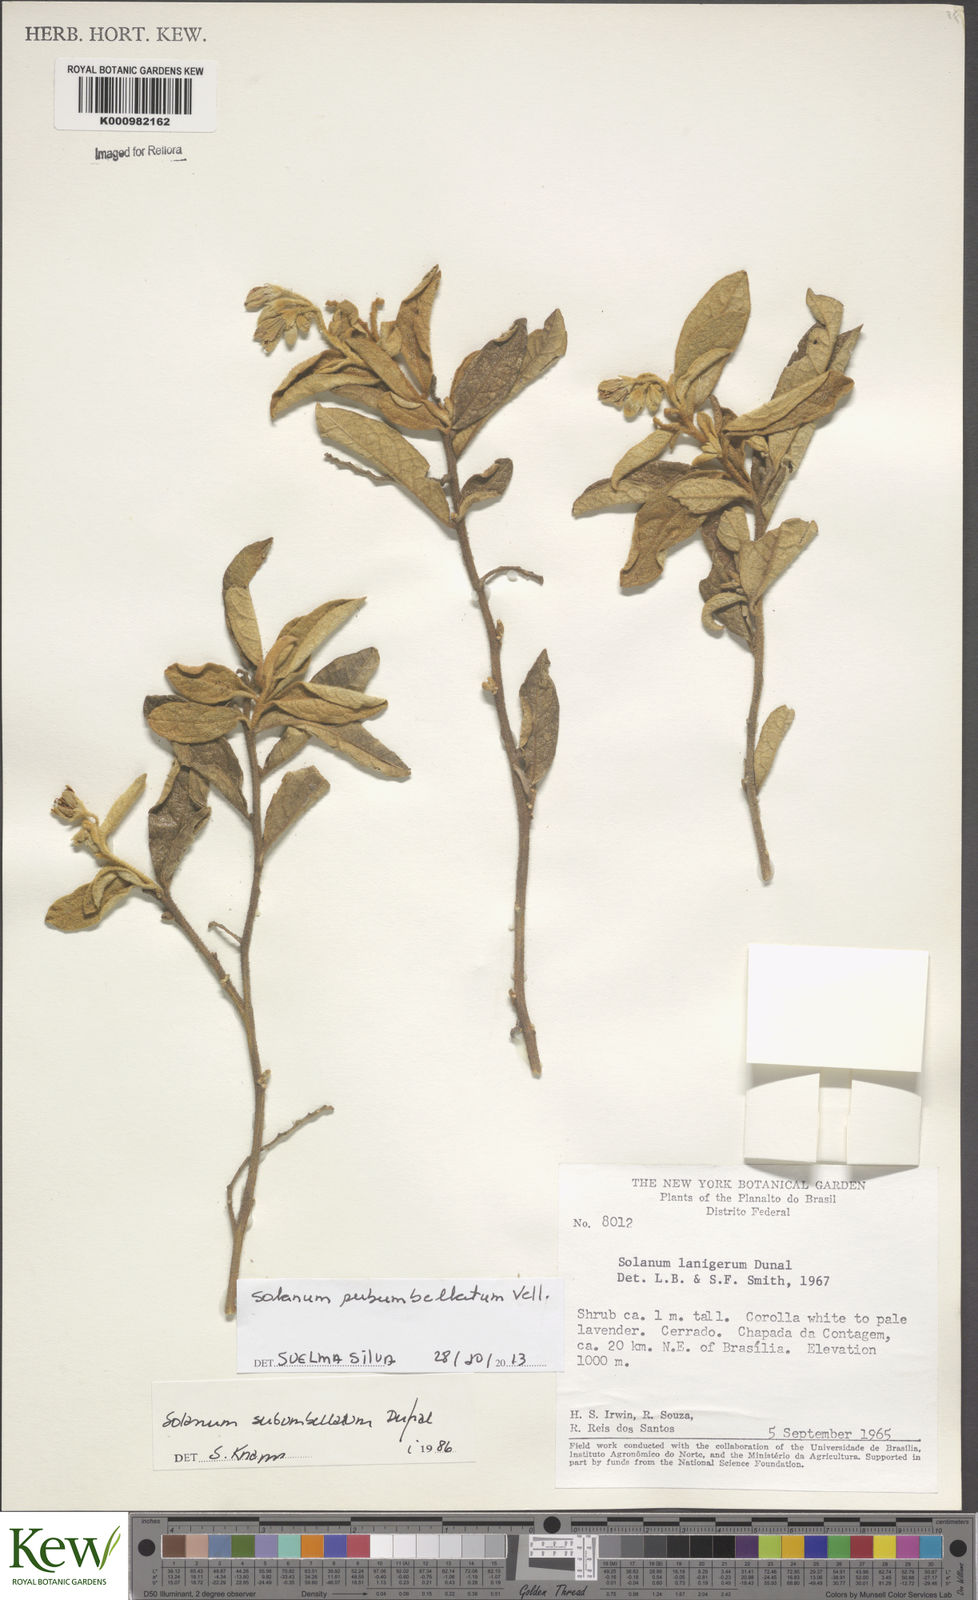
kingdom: Plantae
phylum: Tracheophyta
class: Magnoliopsida
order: Solanales
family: Solanaceae
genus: Solanum
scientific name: Solanum subumbellatum
